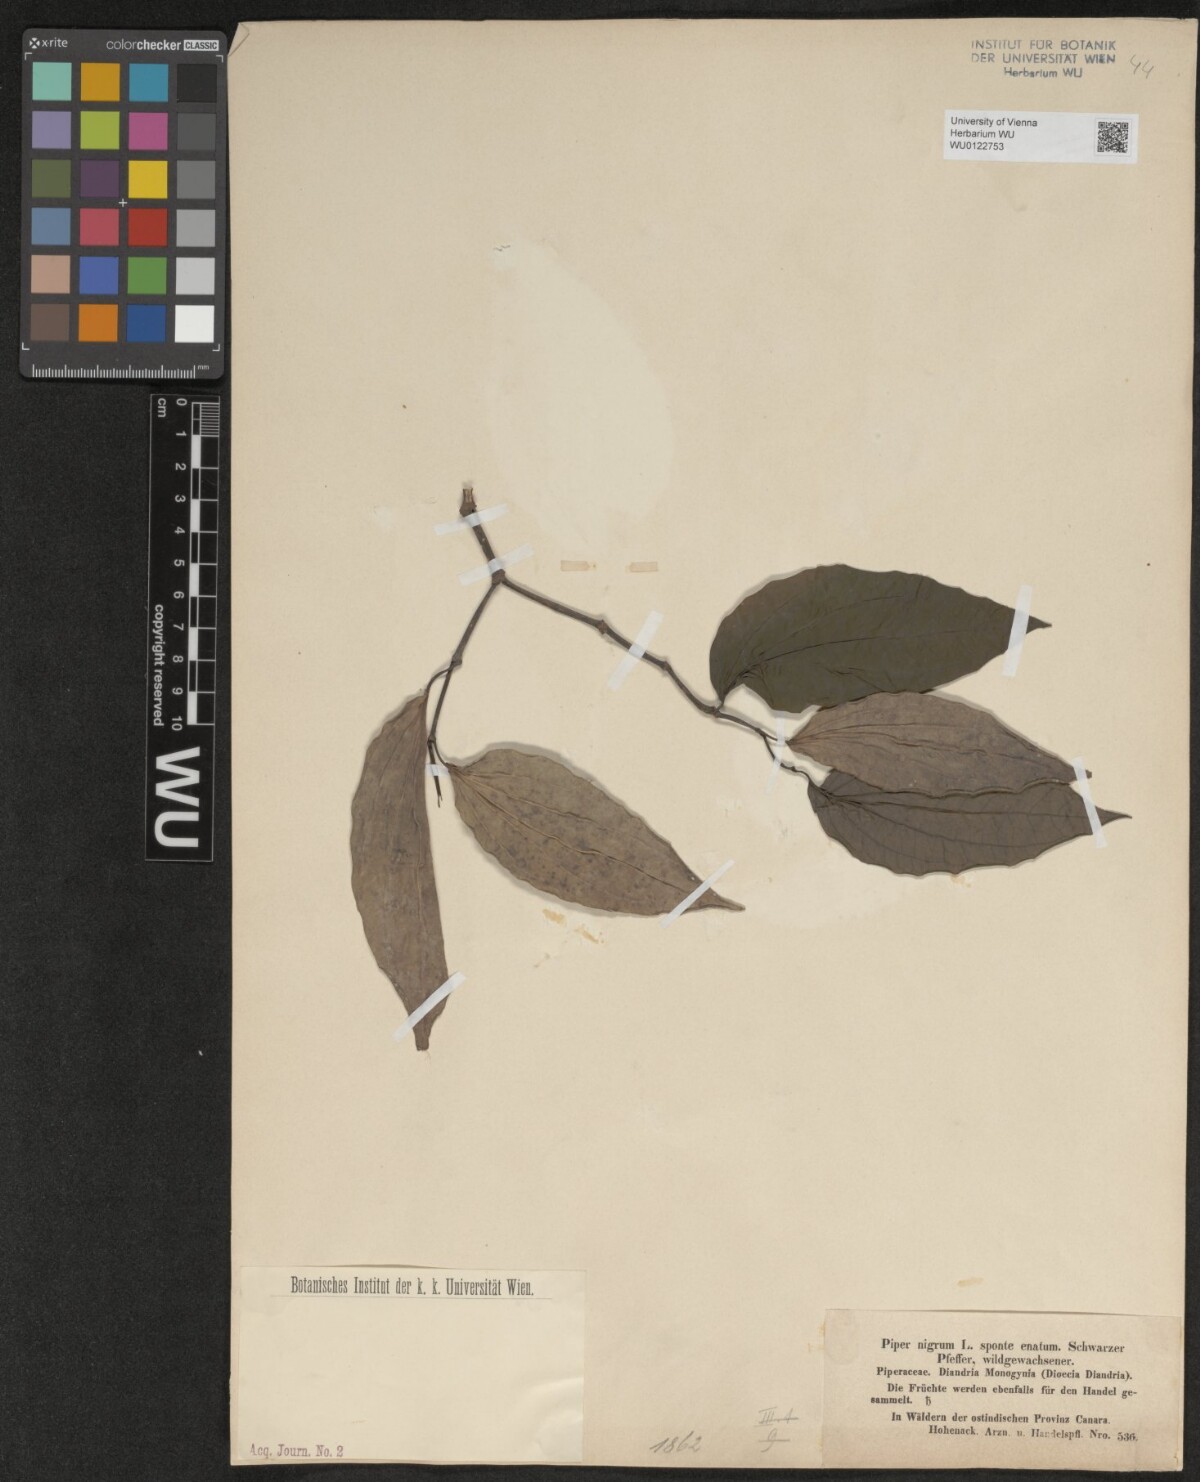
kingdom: Plantae
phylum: Tracheophyta
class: Magnoliopsida
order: Piperales
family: Piperaceae
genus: Piper
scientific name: Piper nigrum
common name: Black pepper
